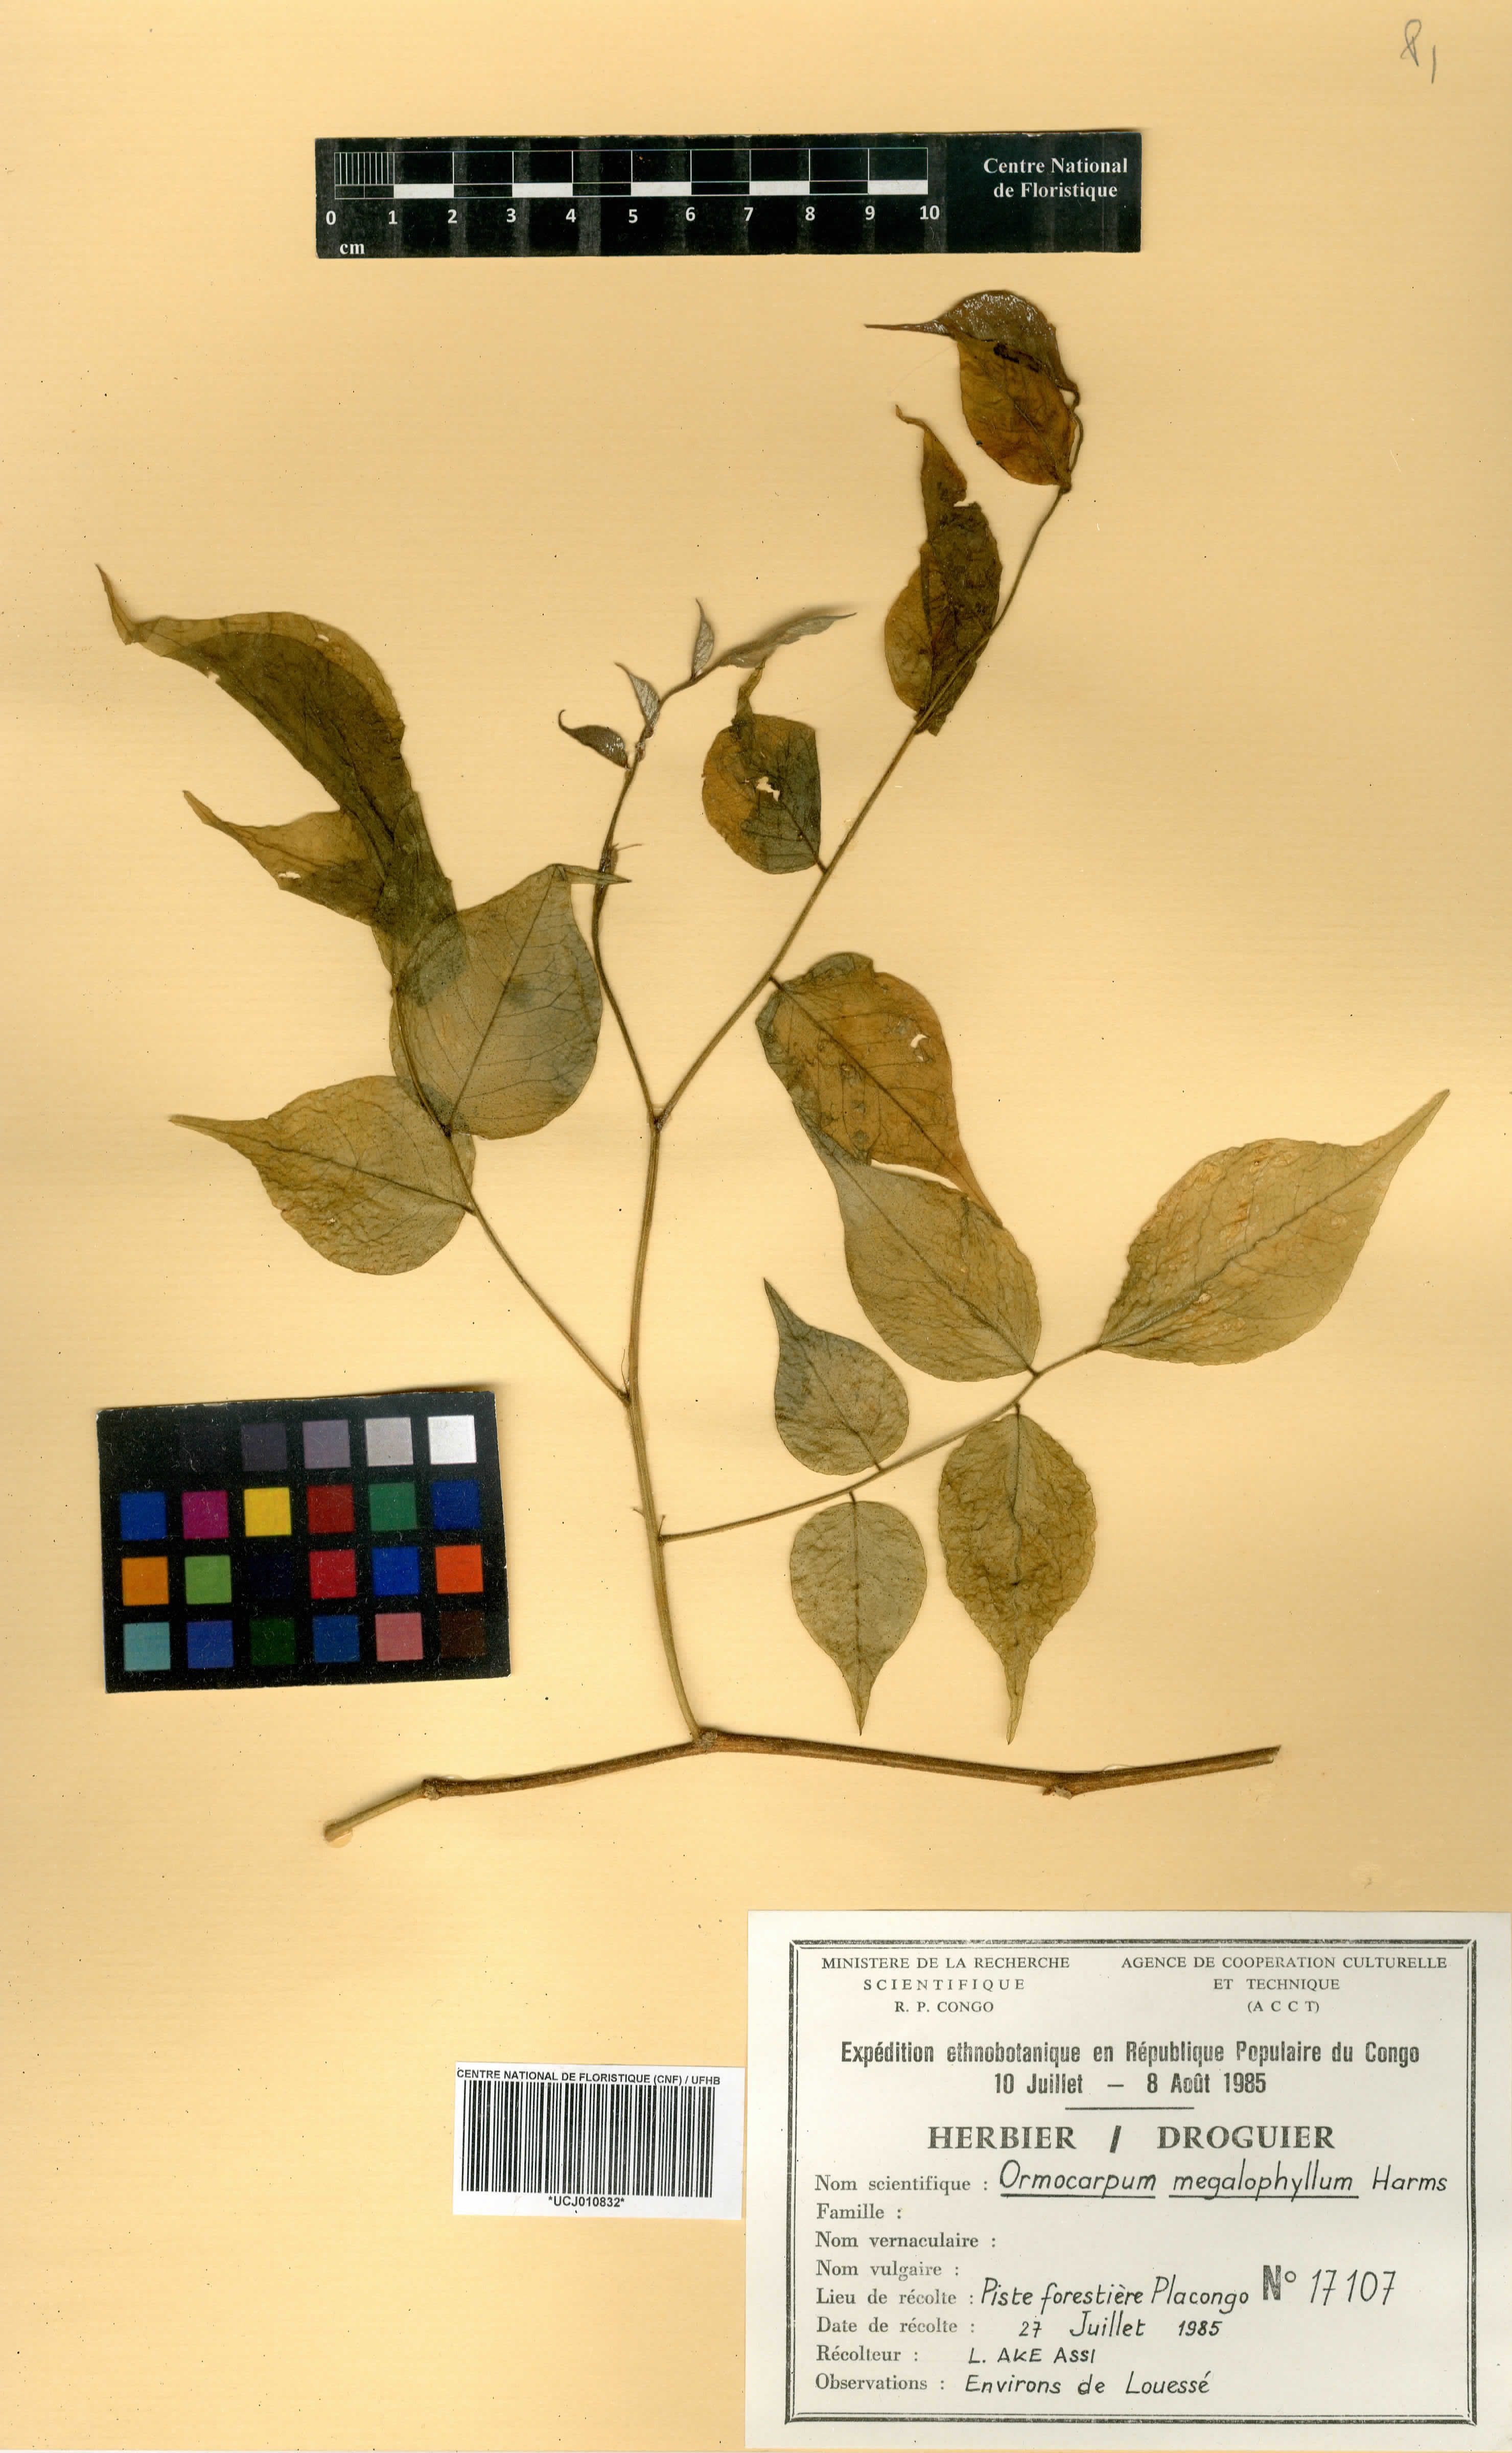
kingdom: Plantae
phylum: Tracheophyta
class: Magnoliopsida
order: Fabales
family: Fabaceae
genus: Ormocarpum
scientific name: Ormocarpum megalophyllum
